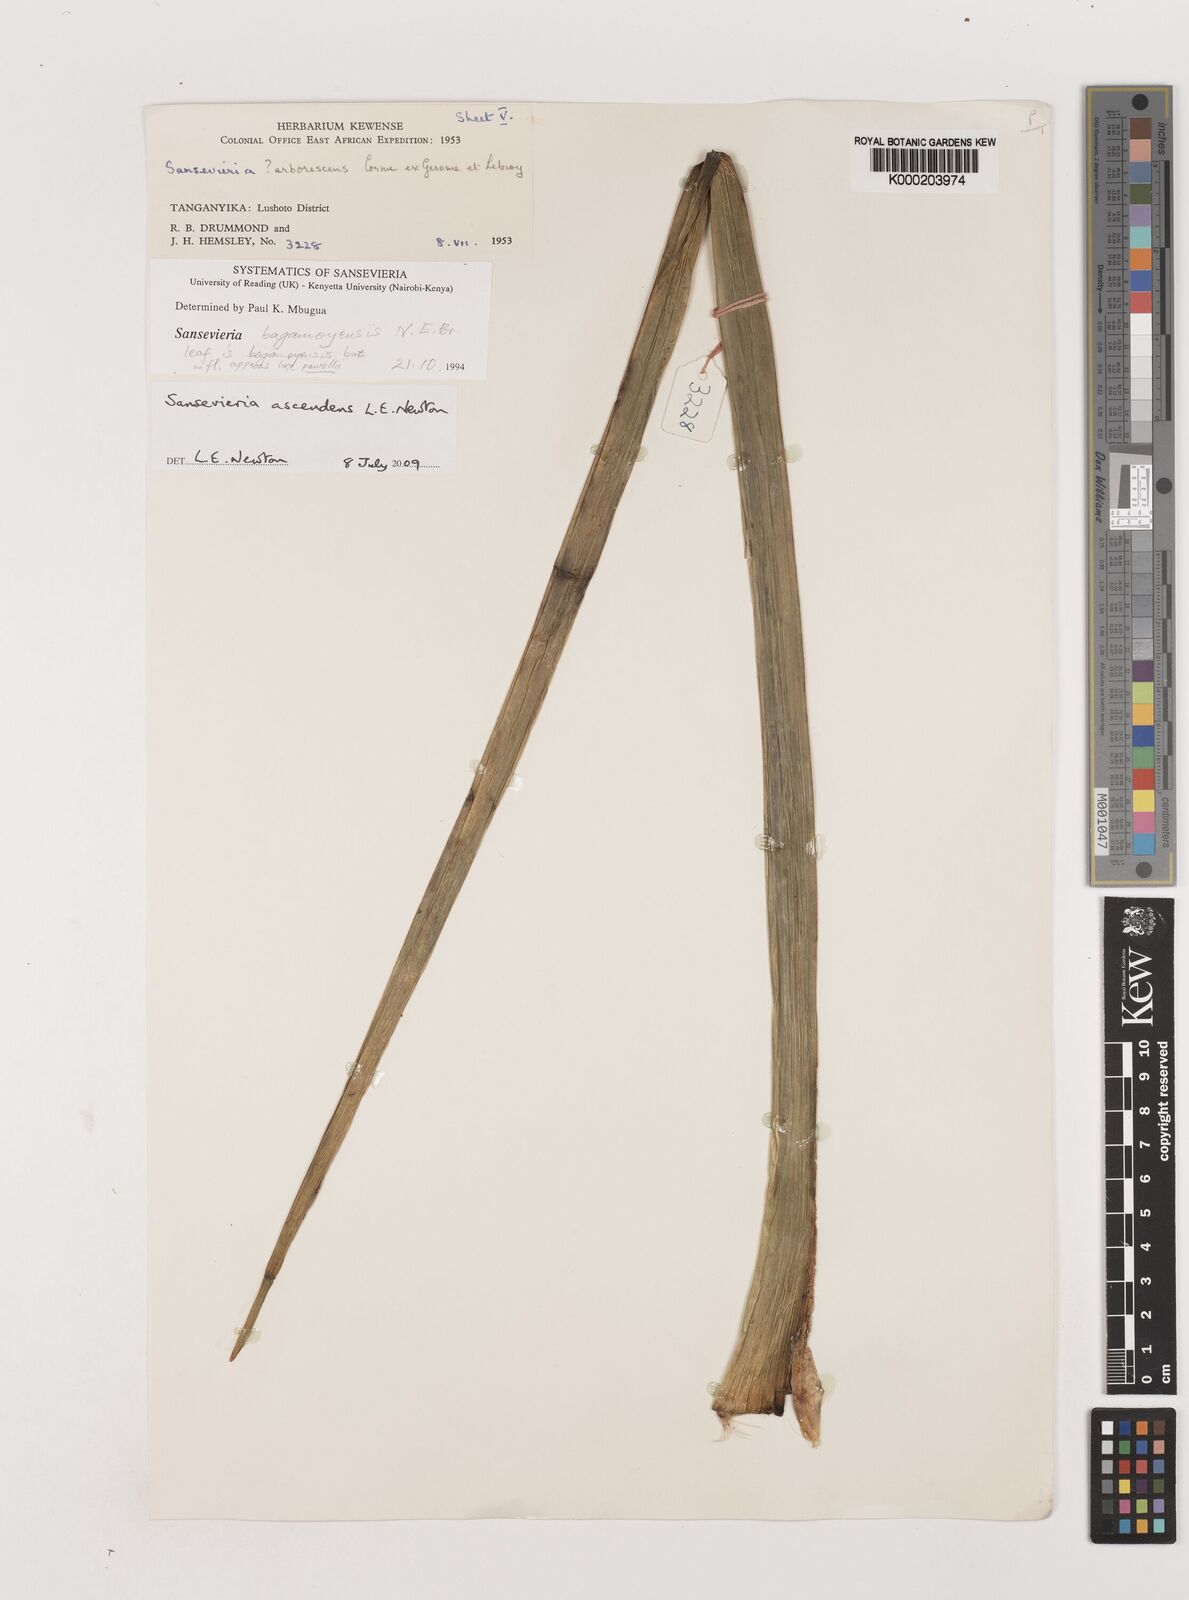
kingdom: Plantae
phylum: Tracheophyta
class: Liliopsida
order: Asparagales
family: Asparagaceae
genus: Dracaena
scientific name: Dracaena ascendens
